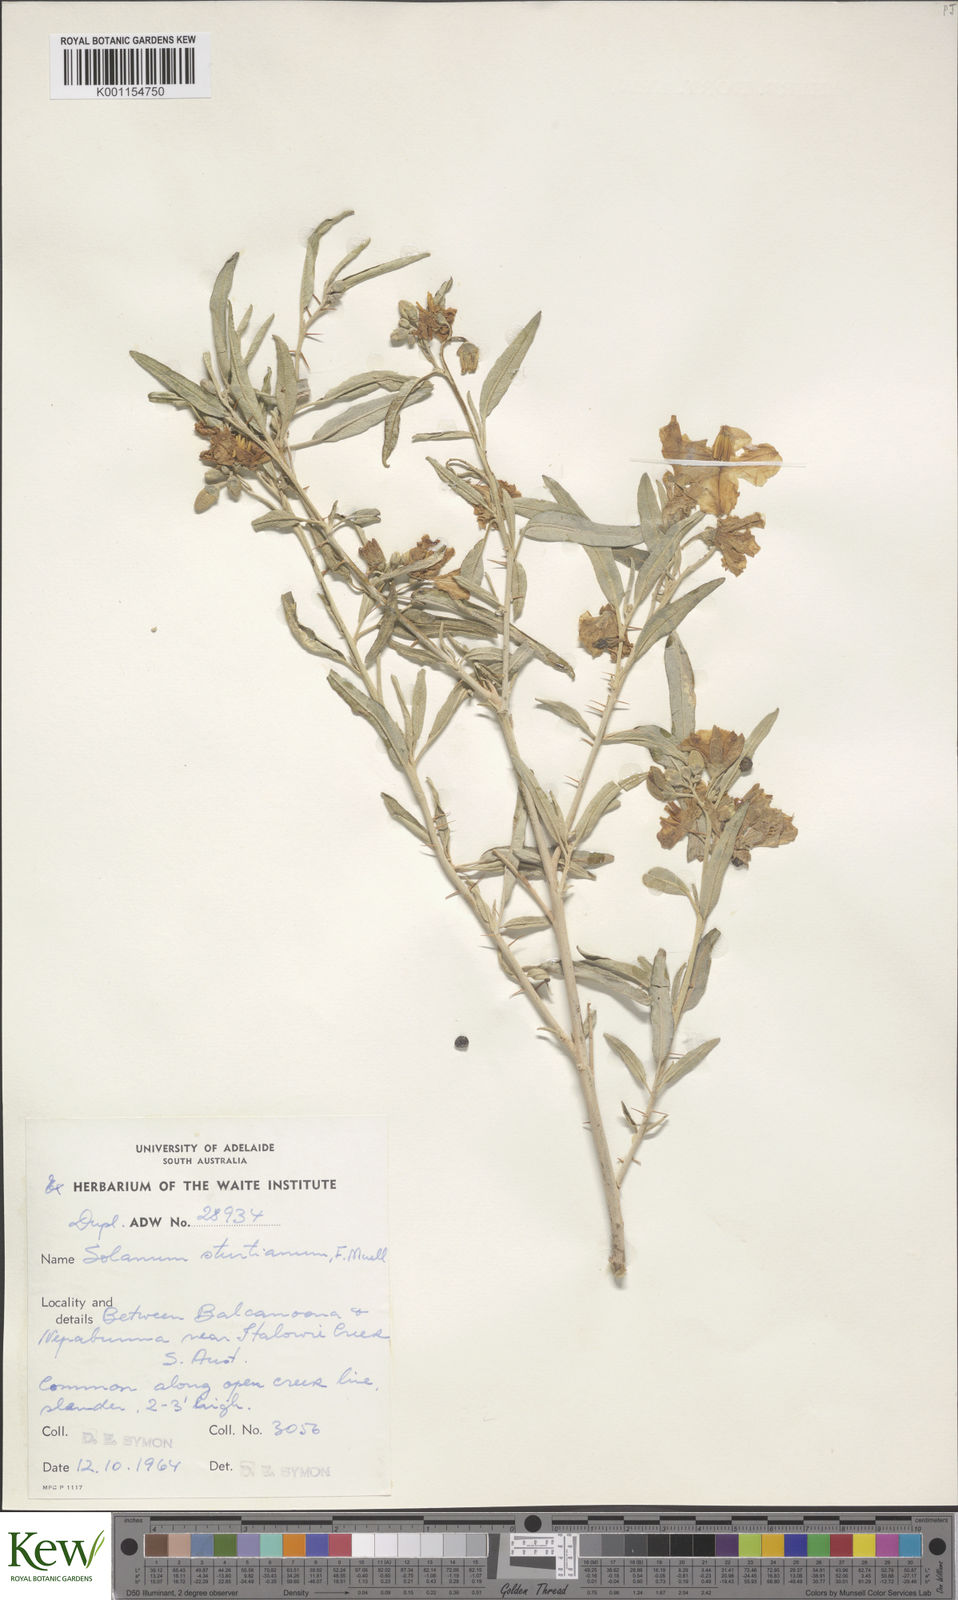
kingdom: Plantae
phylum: Tracheophyta
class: Magnoliopsida
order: Solanales
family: Solanaceae
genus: Solanum
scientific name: Solanum sturtianum
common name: Thargomindah nightshade
